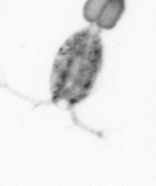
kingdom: Animalia
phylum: Arthropoda
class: Copepoda
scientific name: Copepoda
